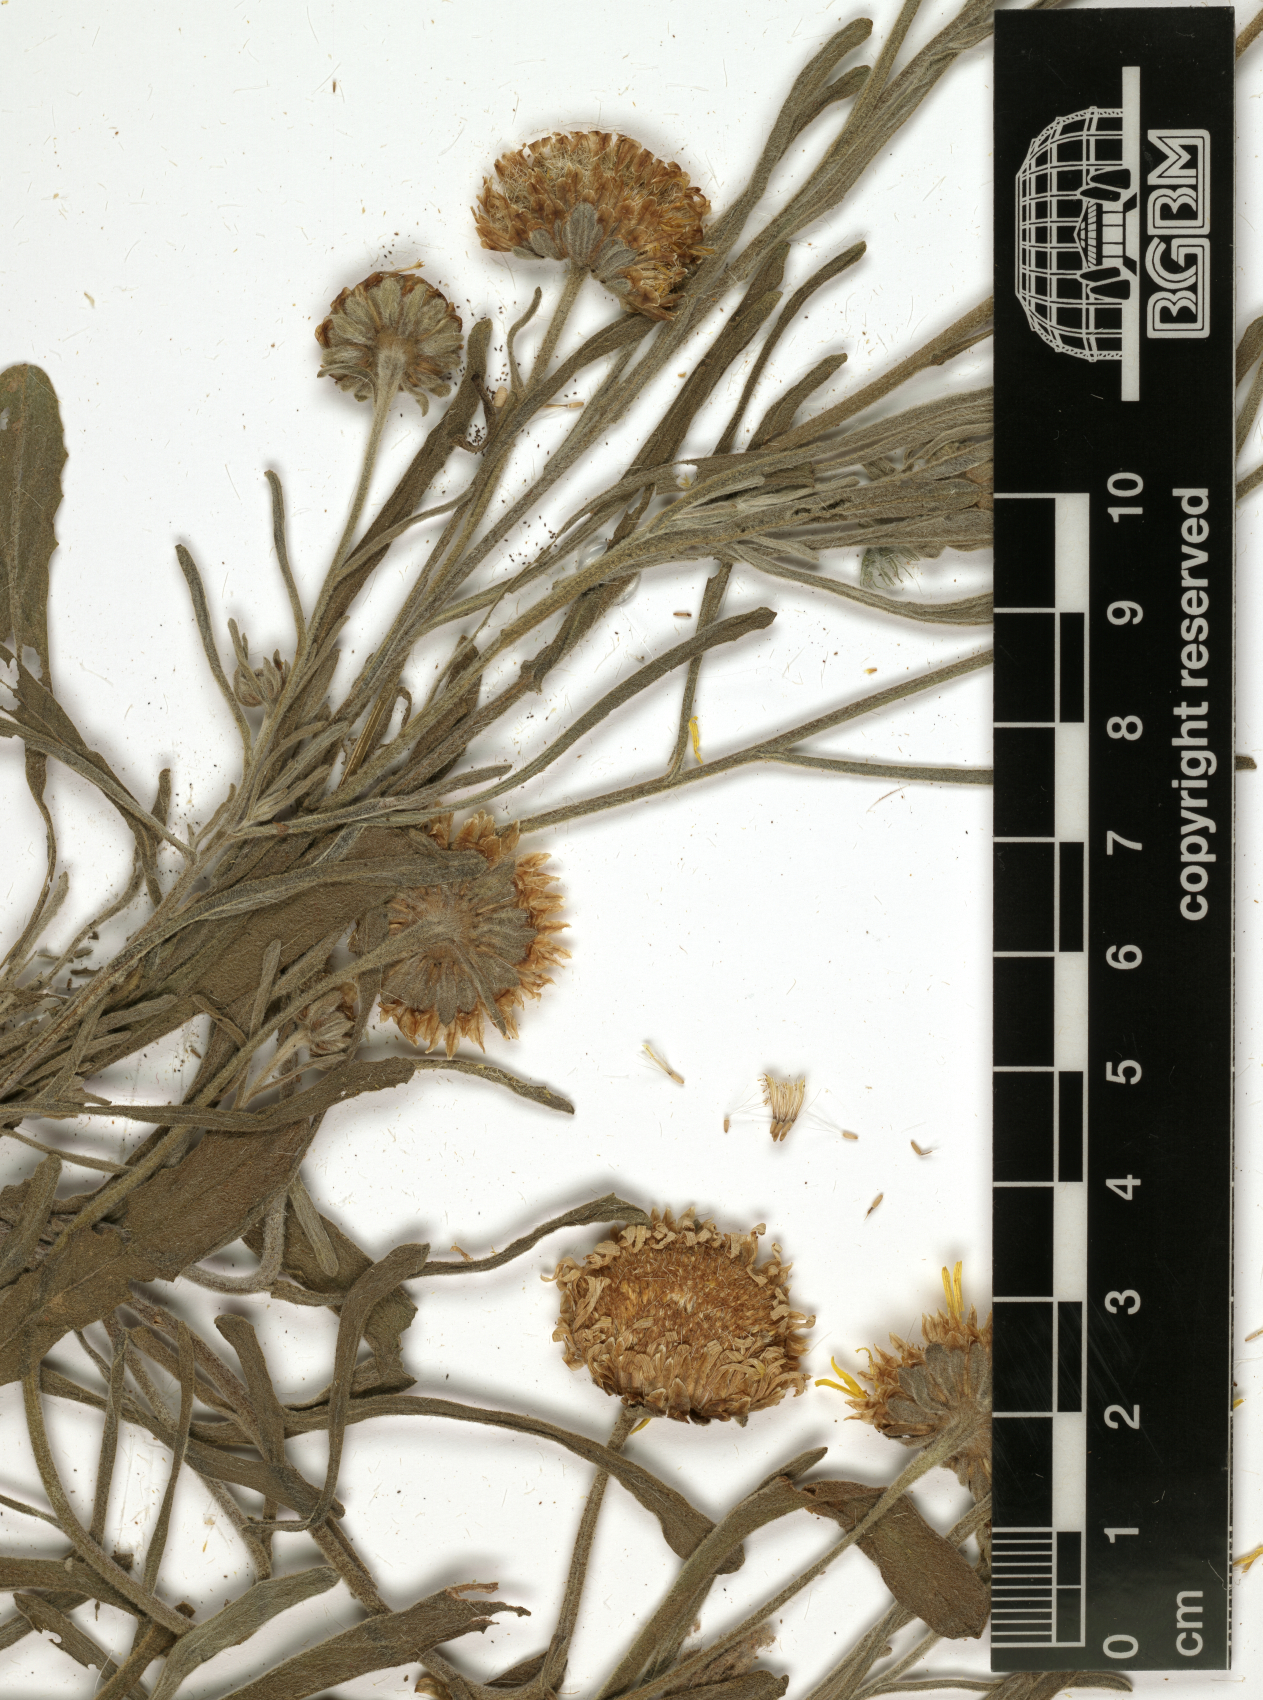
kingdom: Plantae
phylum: Tracheophyta
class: Magnoliopsida
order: Asterales
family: Asteraceae
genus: Pulicaria
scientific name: Pulicaria jaubertii
